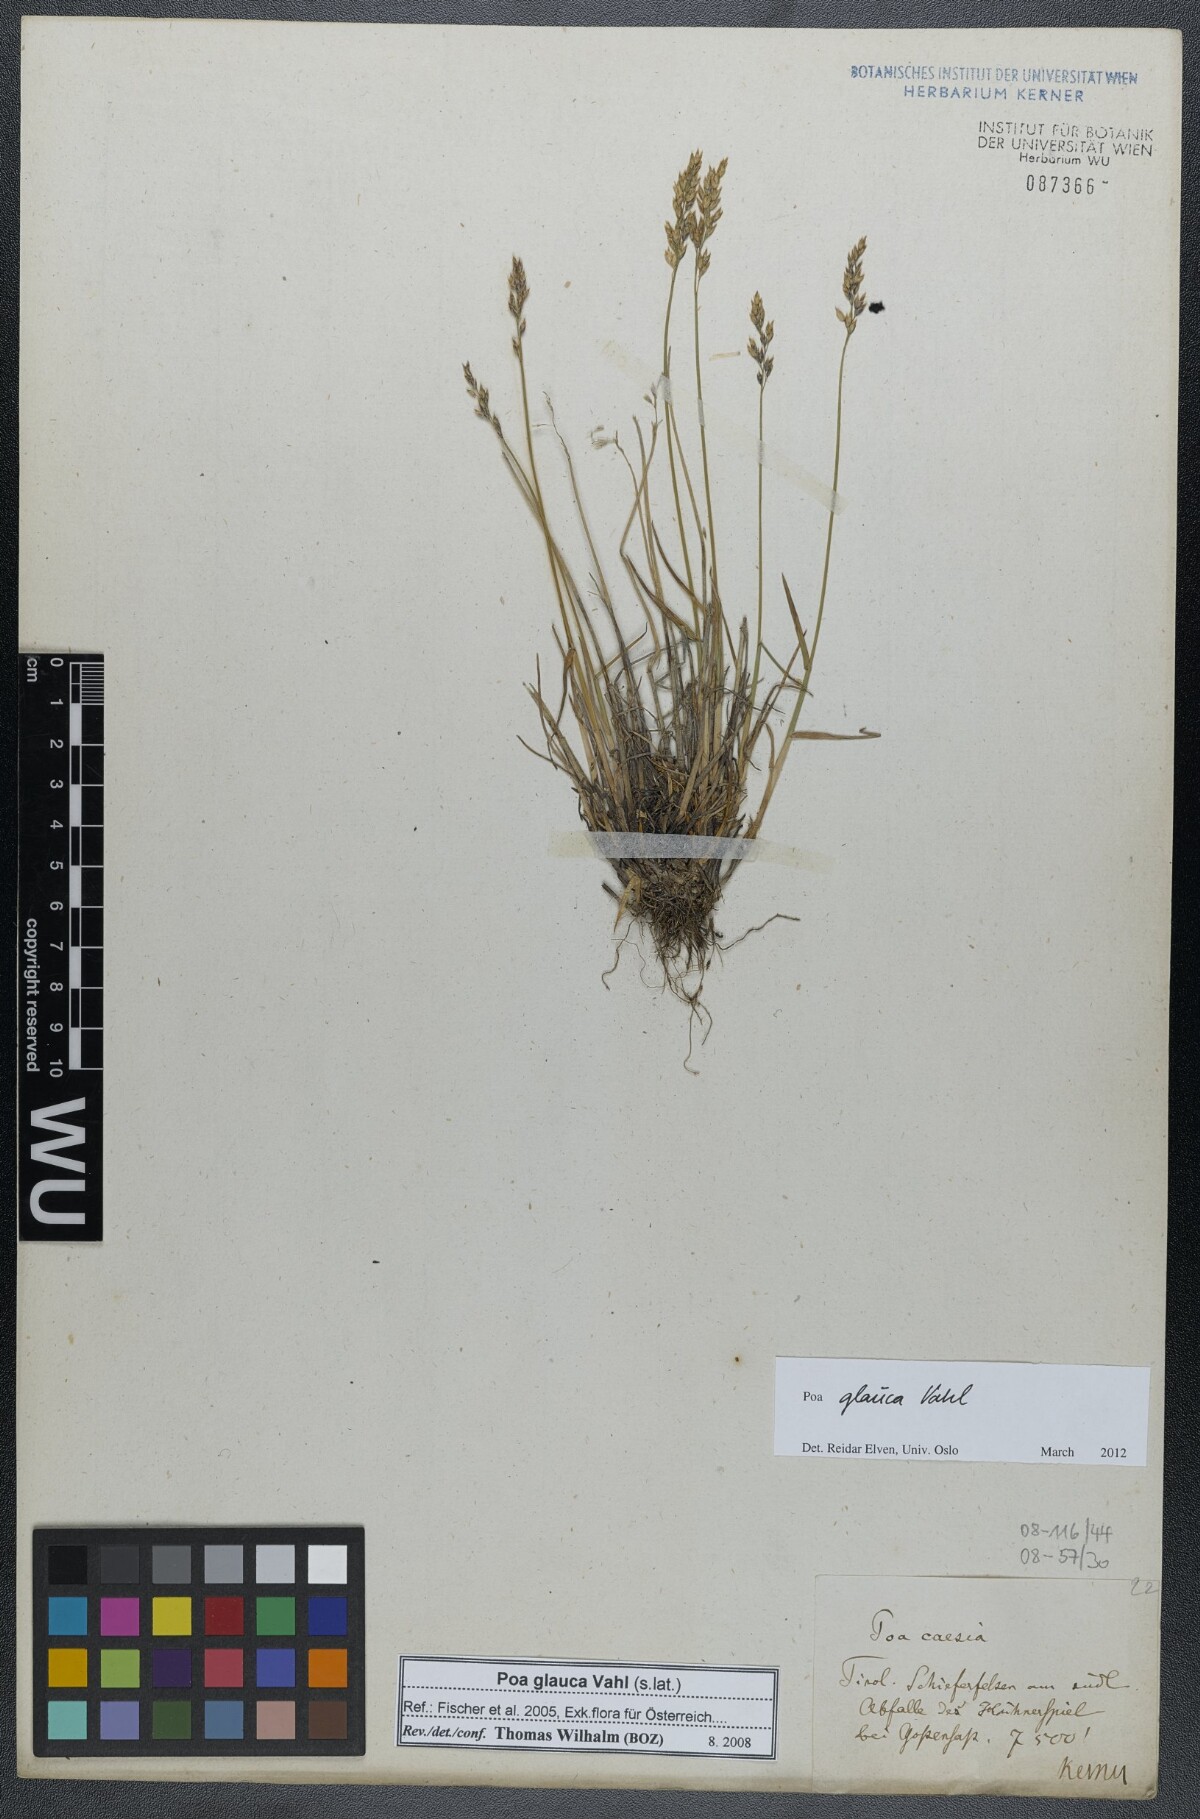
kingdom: Plantae
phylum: Tracheophyta
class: Liliopsida
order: Poales
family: Poaceae
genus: Poa
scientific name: Poa glauca
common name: Glaucous bluegrass
